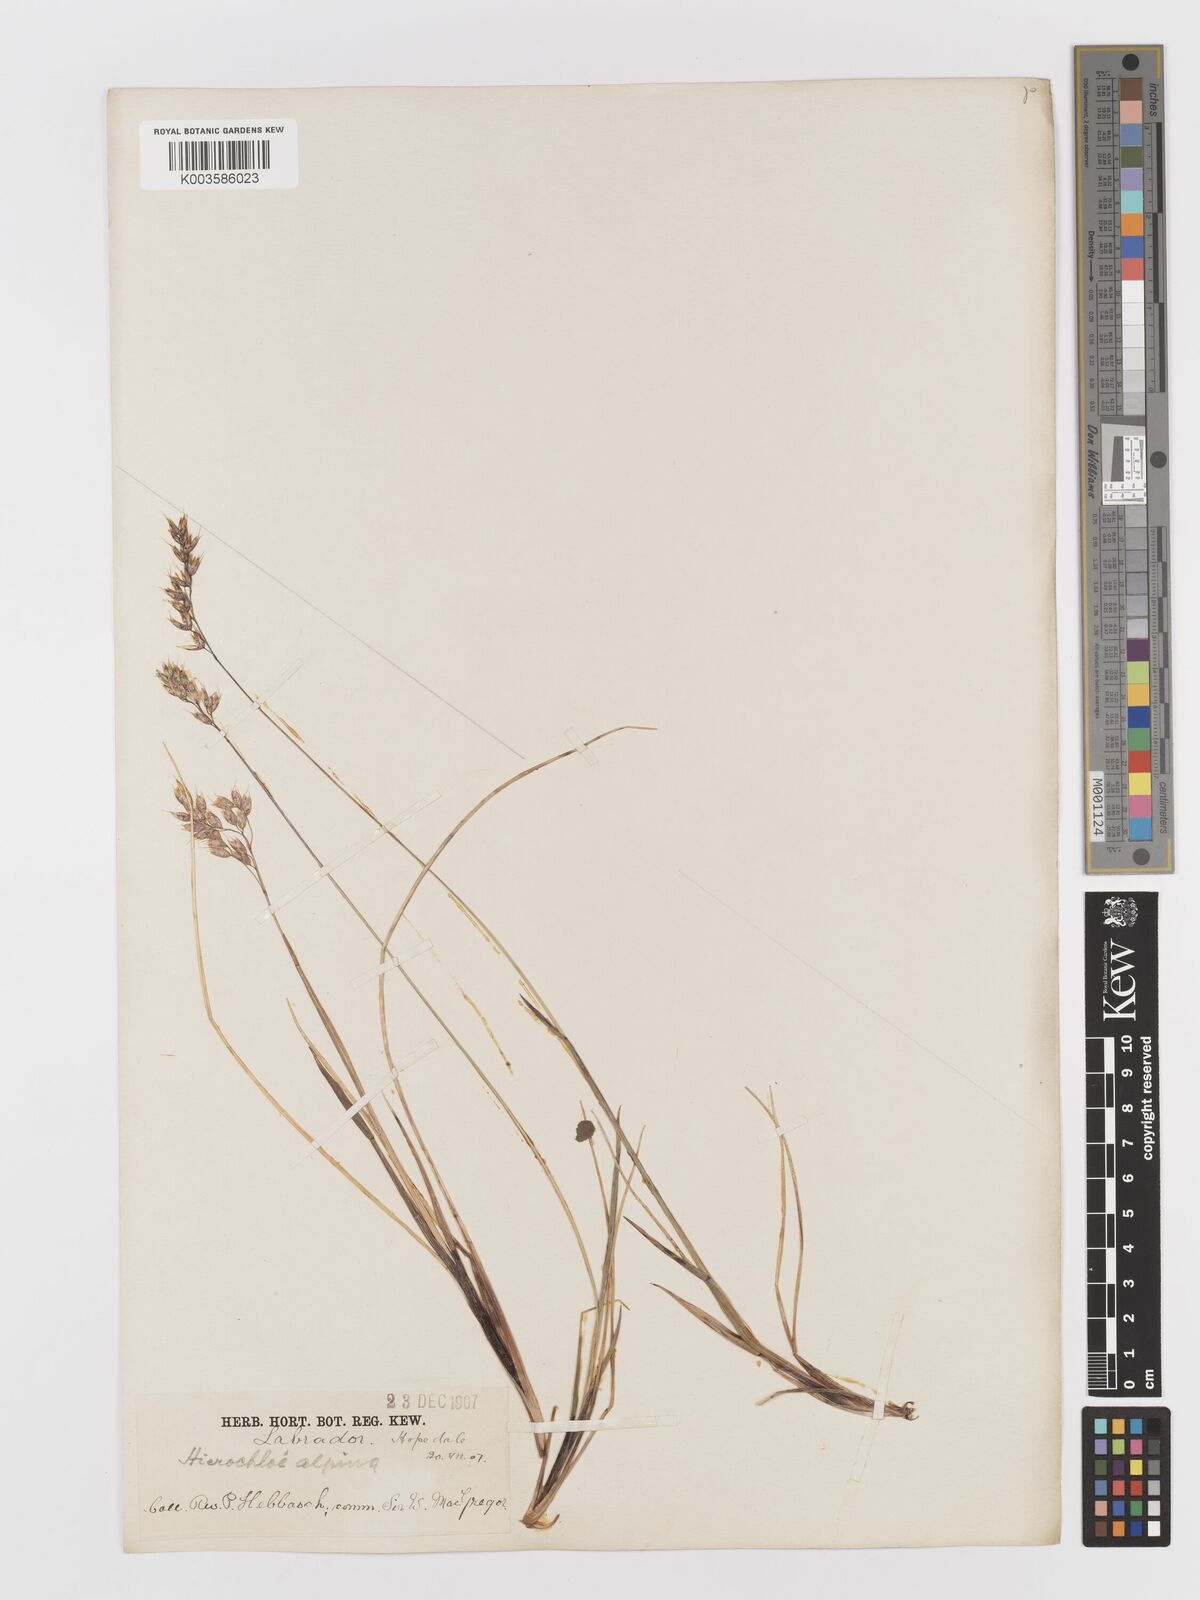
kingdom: Plantae
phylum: Tracheophyta
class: Liliopsida
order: Poales
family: Poaceae
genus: Anthoxanthum
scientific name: Anthoxanthum monticola
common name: Alpine sweetgrass
